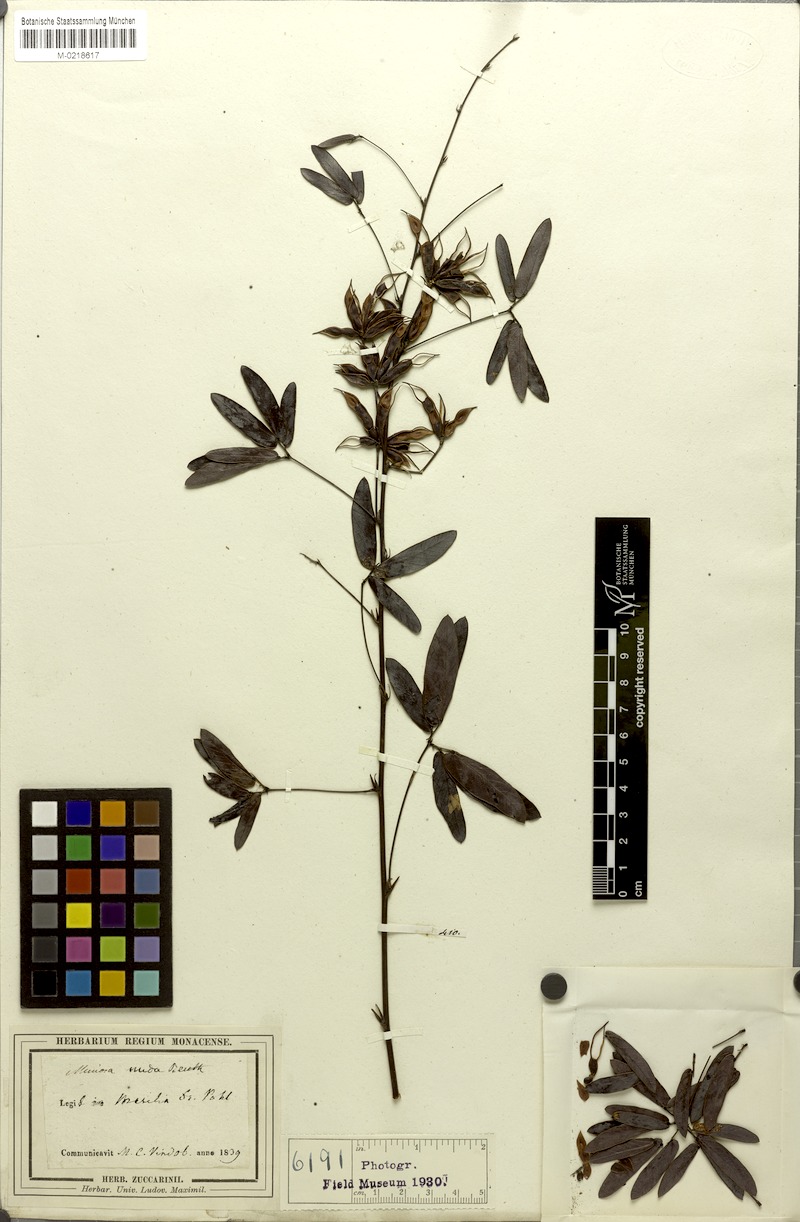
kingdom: Plantae
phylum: Tracheophyta
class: Magnoliopsida
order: Fabales
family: Fabaceae
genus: Mimosa
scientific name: Mimosa debilis
